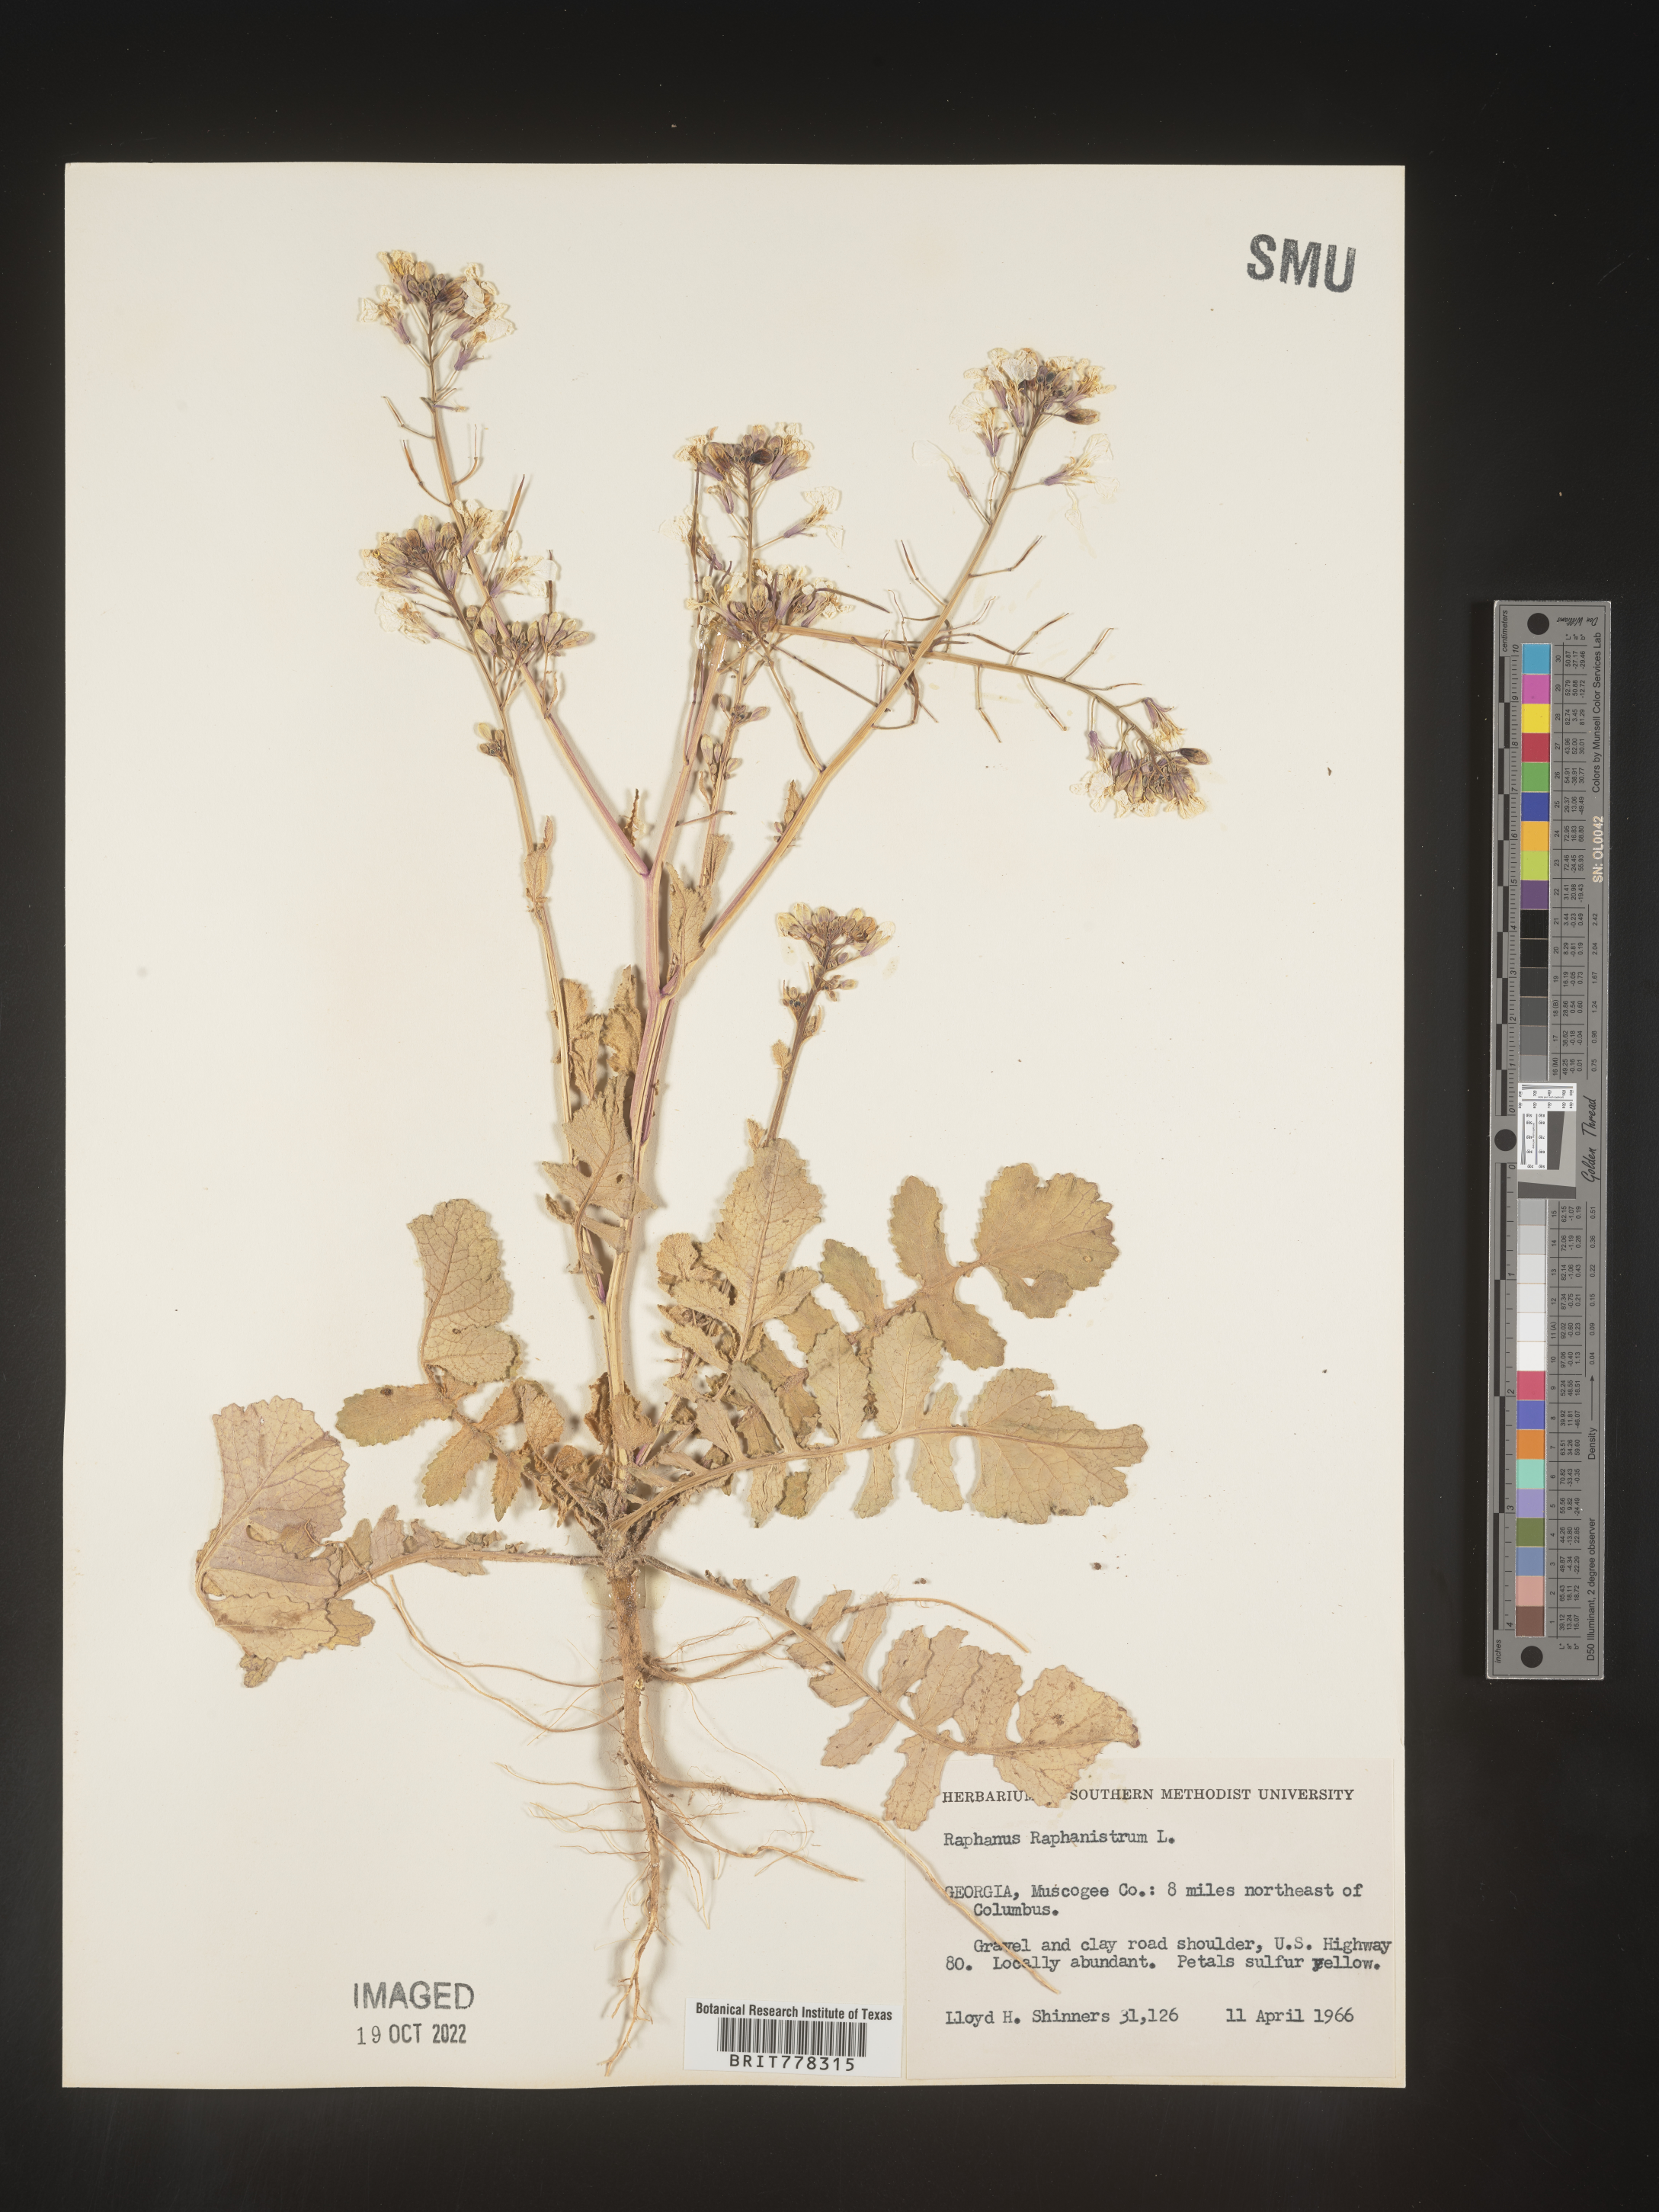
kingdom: Plantae
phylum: Tracheophyta
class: Magnoliopsida
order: Brassicales
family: Brassicaceae
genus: Raphanus
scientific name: Raphanus raphanistrum
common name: Wild radish
